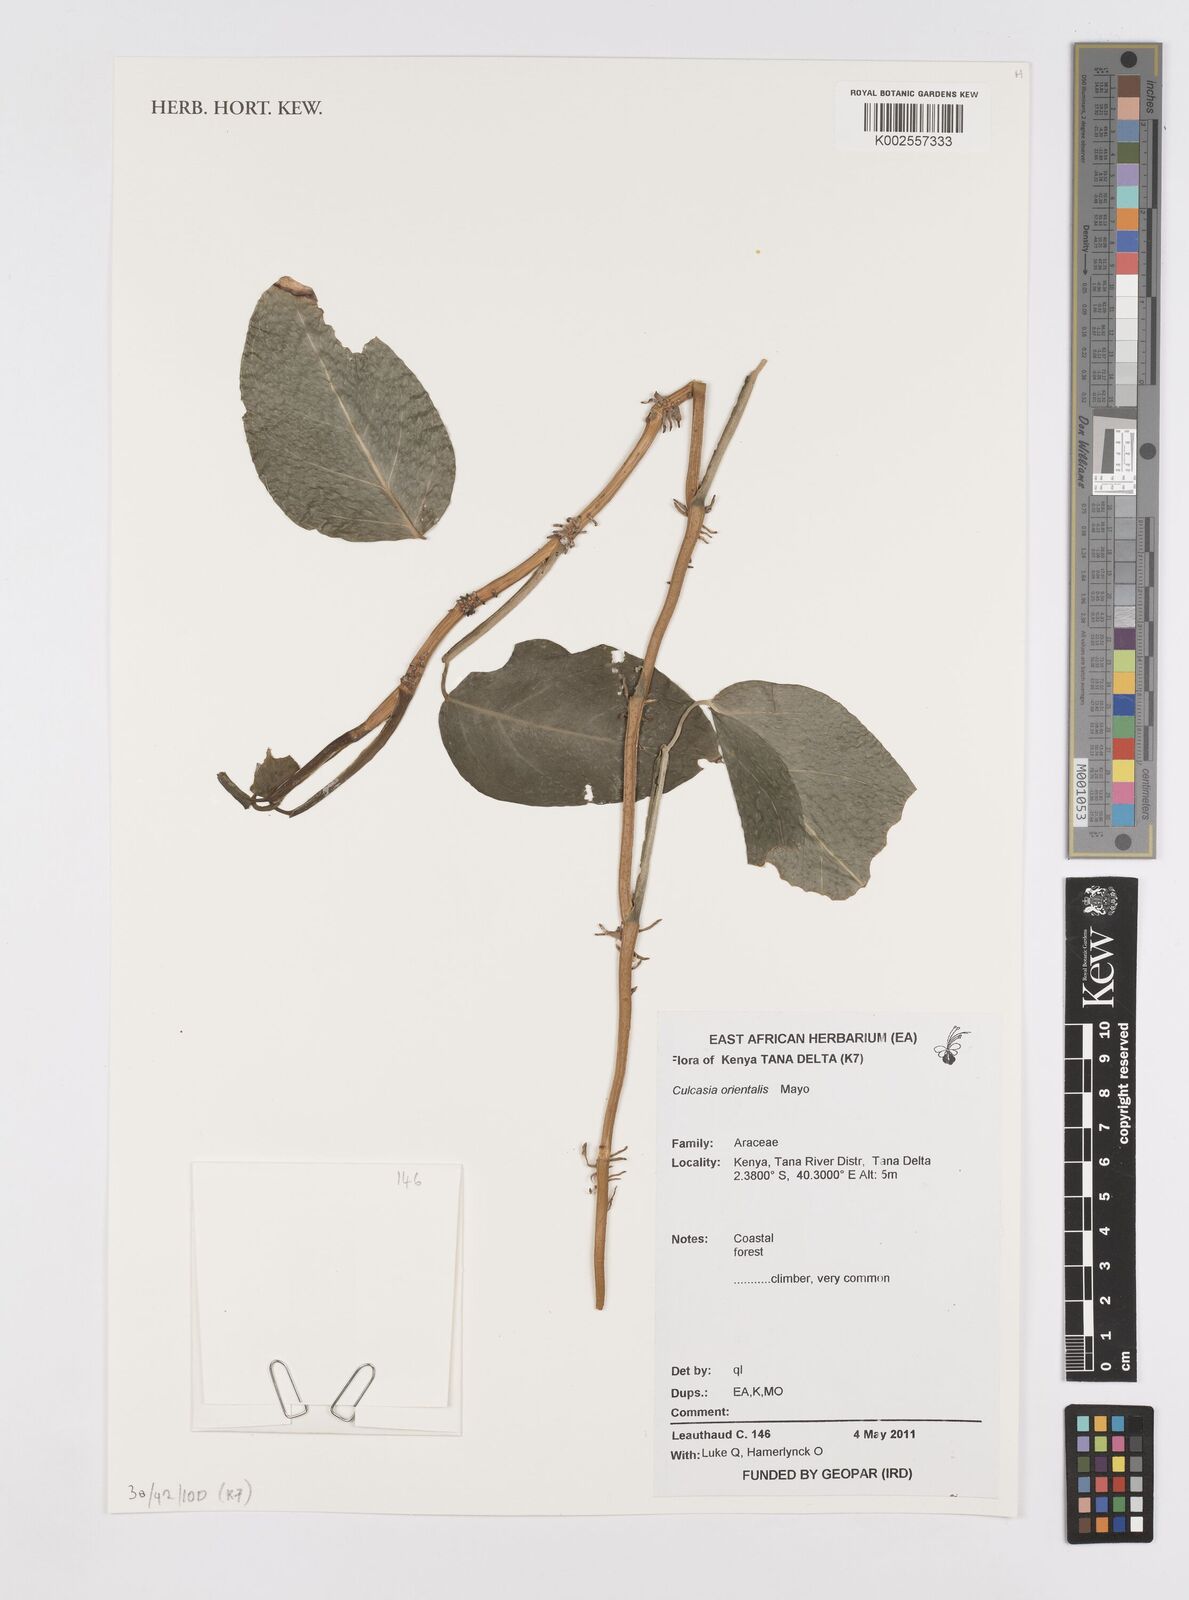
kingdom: Plantae
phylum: Tracheophyta
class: Liliopsida
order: Alismatales
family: Araceae
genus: Culcasia
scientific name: Culcasia orientalis
